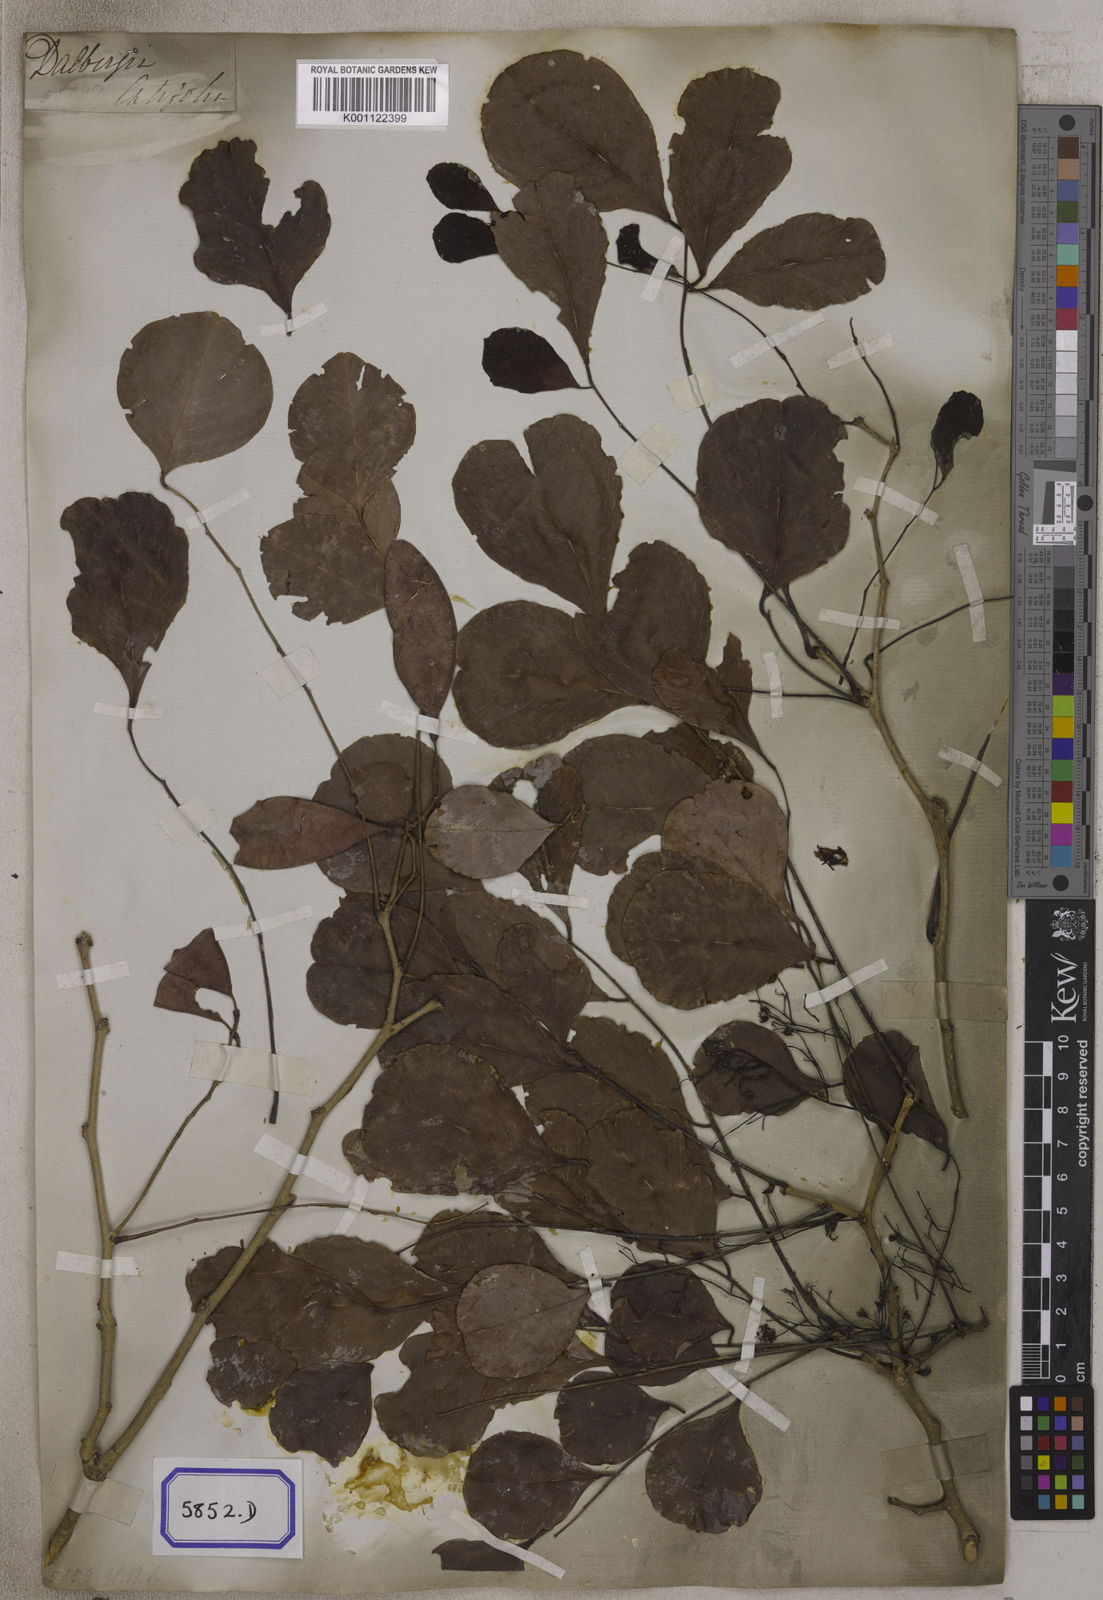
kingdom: Plantae
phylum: Tracheophyta
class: Magnoliopsida
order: Fabales
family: Fabaceae
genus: Dalbergia
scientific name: Dalbergia latifolia
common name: Bombay blackwood
